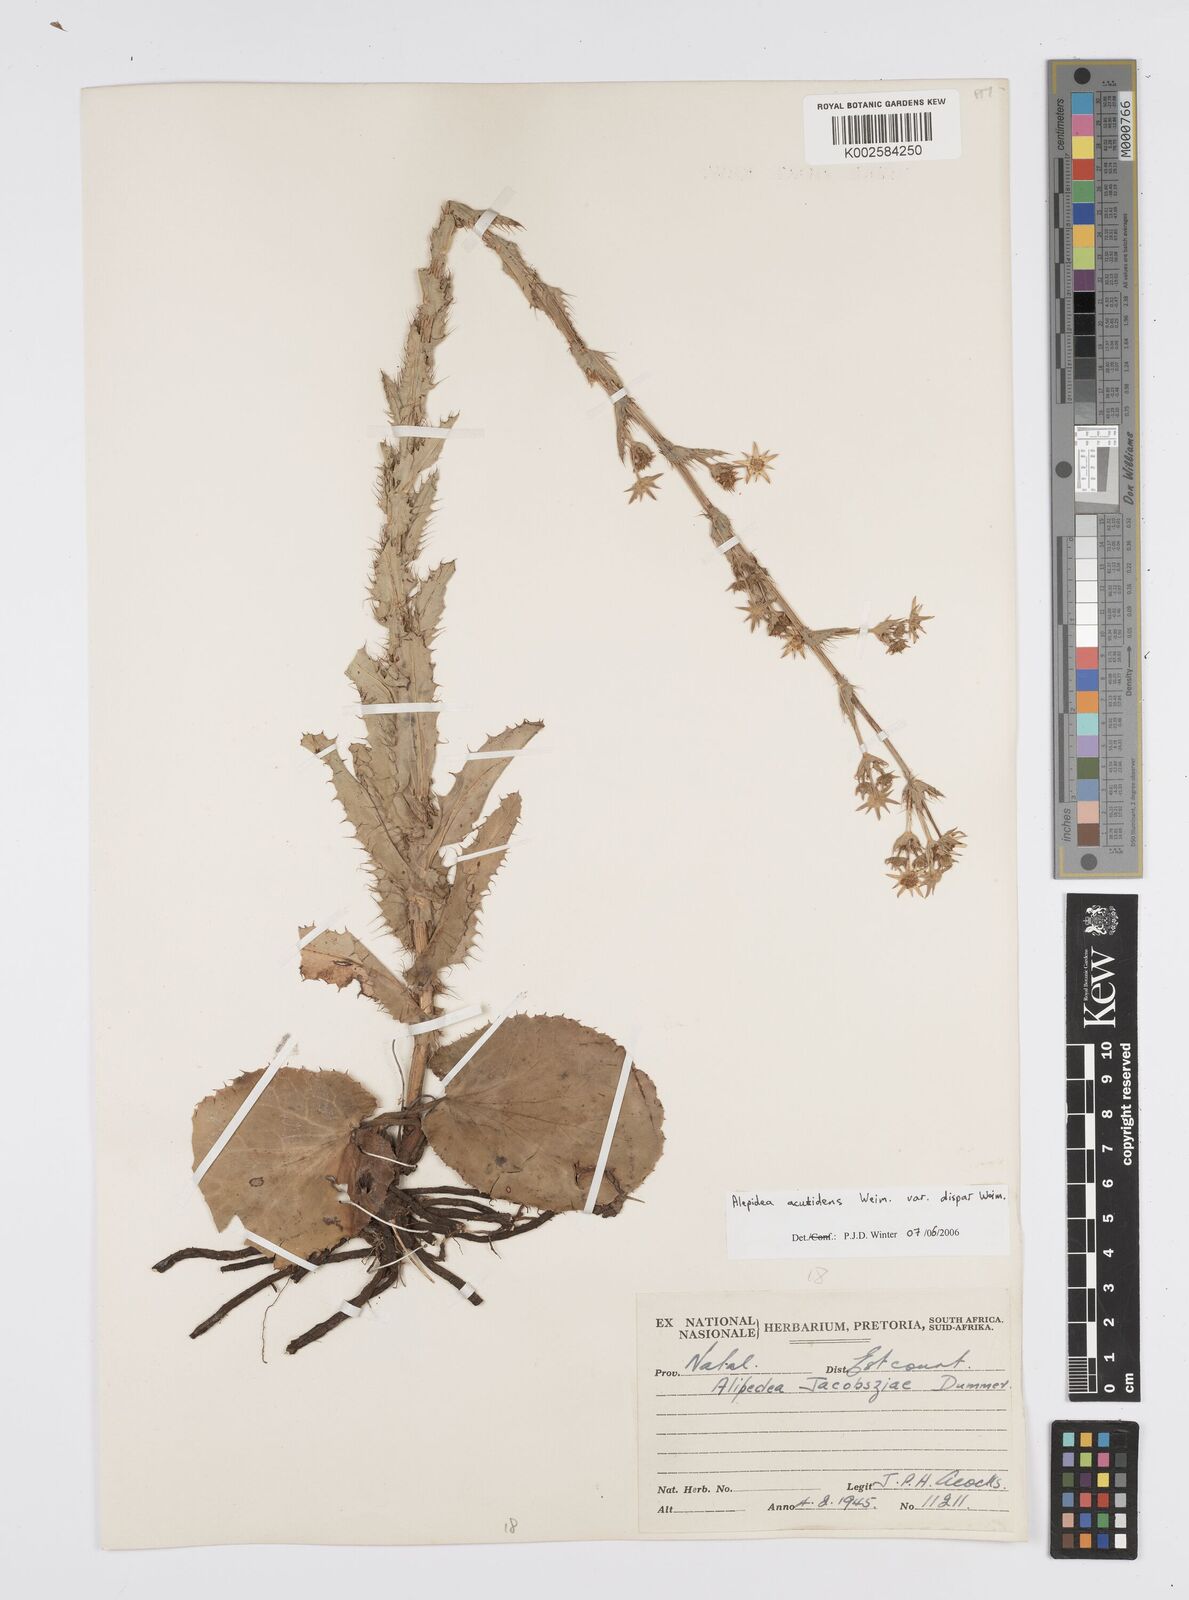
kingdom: Plantae
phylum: Tracheophyta
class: Magnoliopsida
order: Apiales
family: Apiaceae
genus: Alepidea
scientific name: Alepidea acutidens
